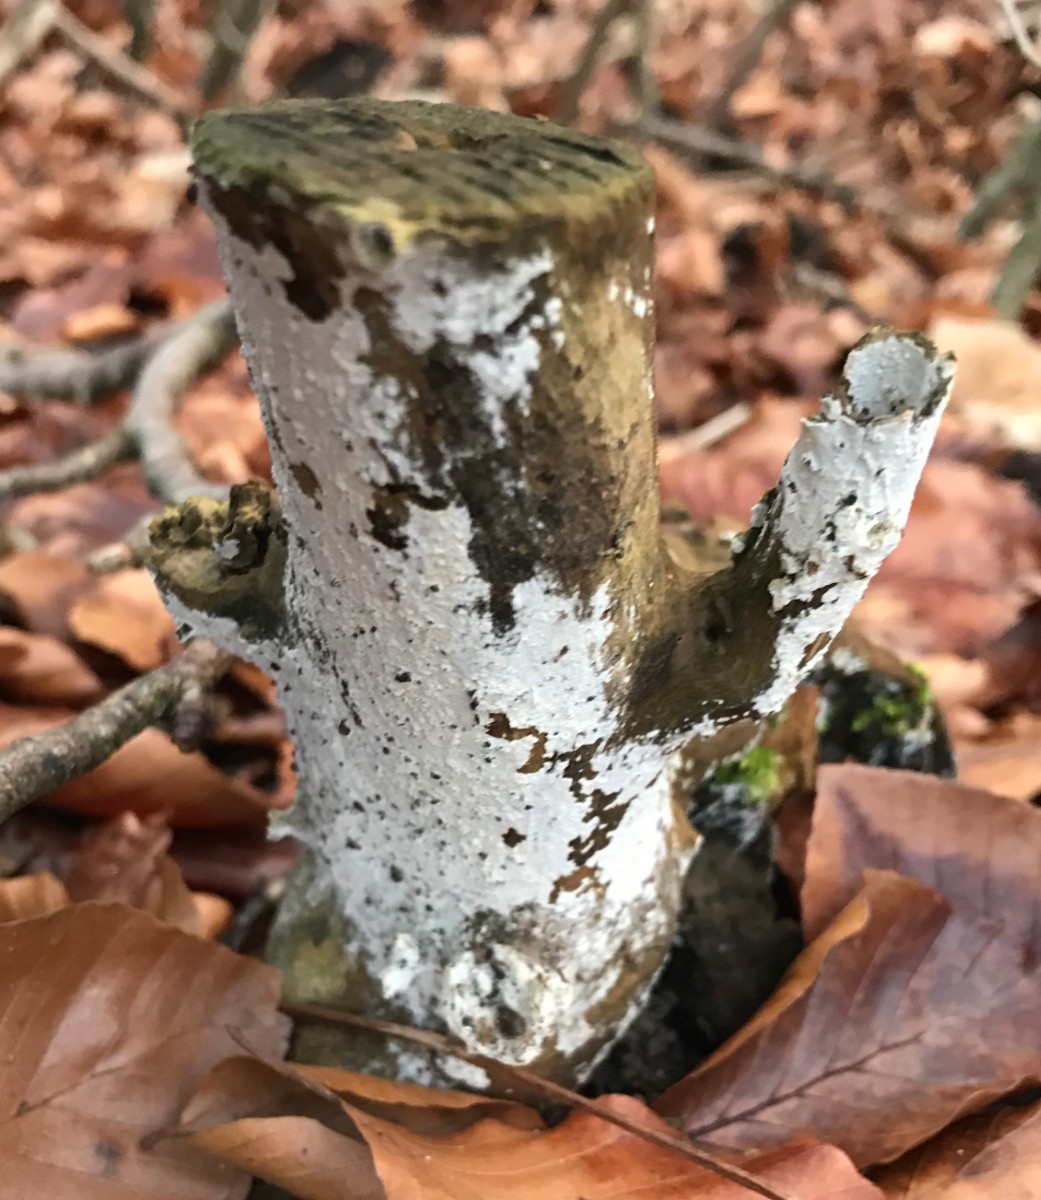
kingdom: Fungi
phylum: Basidiomycota
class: Agaricomycetes
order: Corticiales
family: Corticiaceae
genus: Lyomyces
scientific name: Lyomyces sambuci
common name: almindelig hyldehinde
